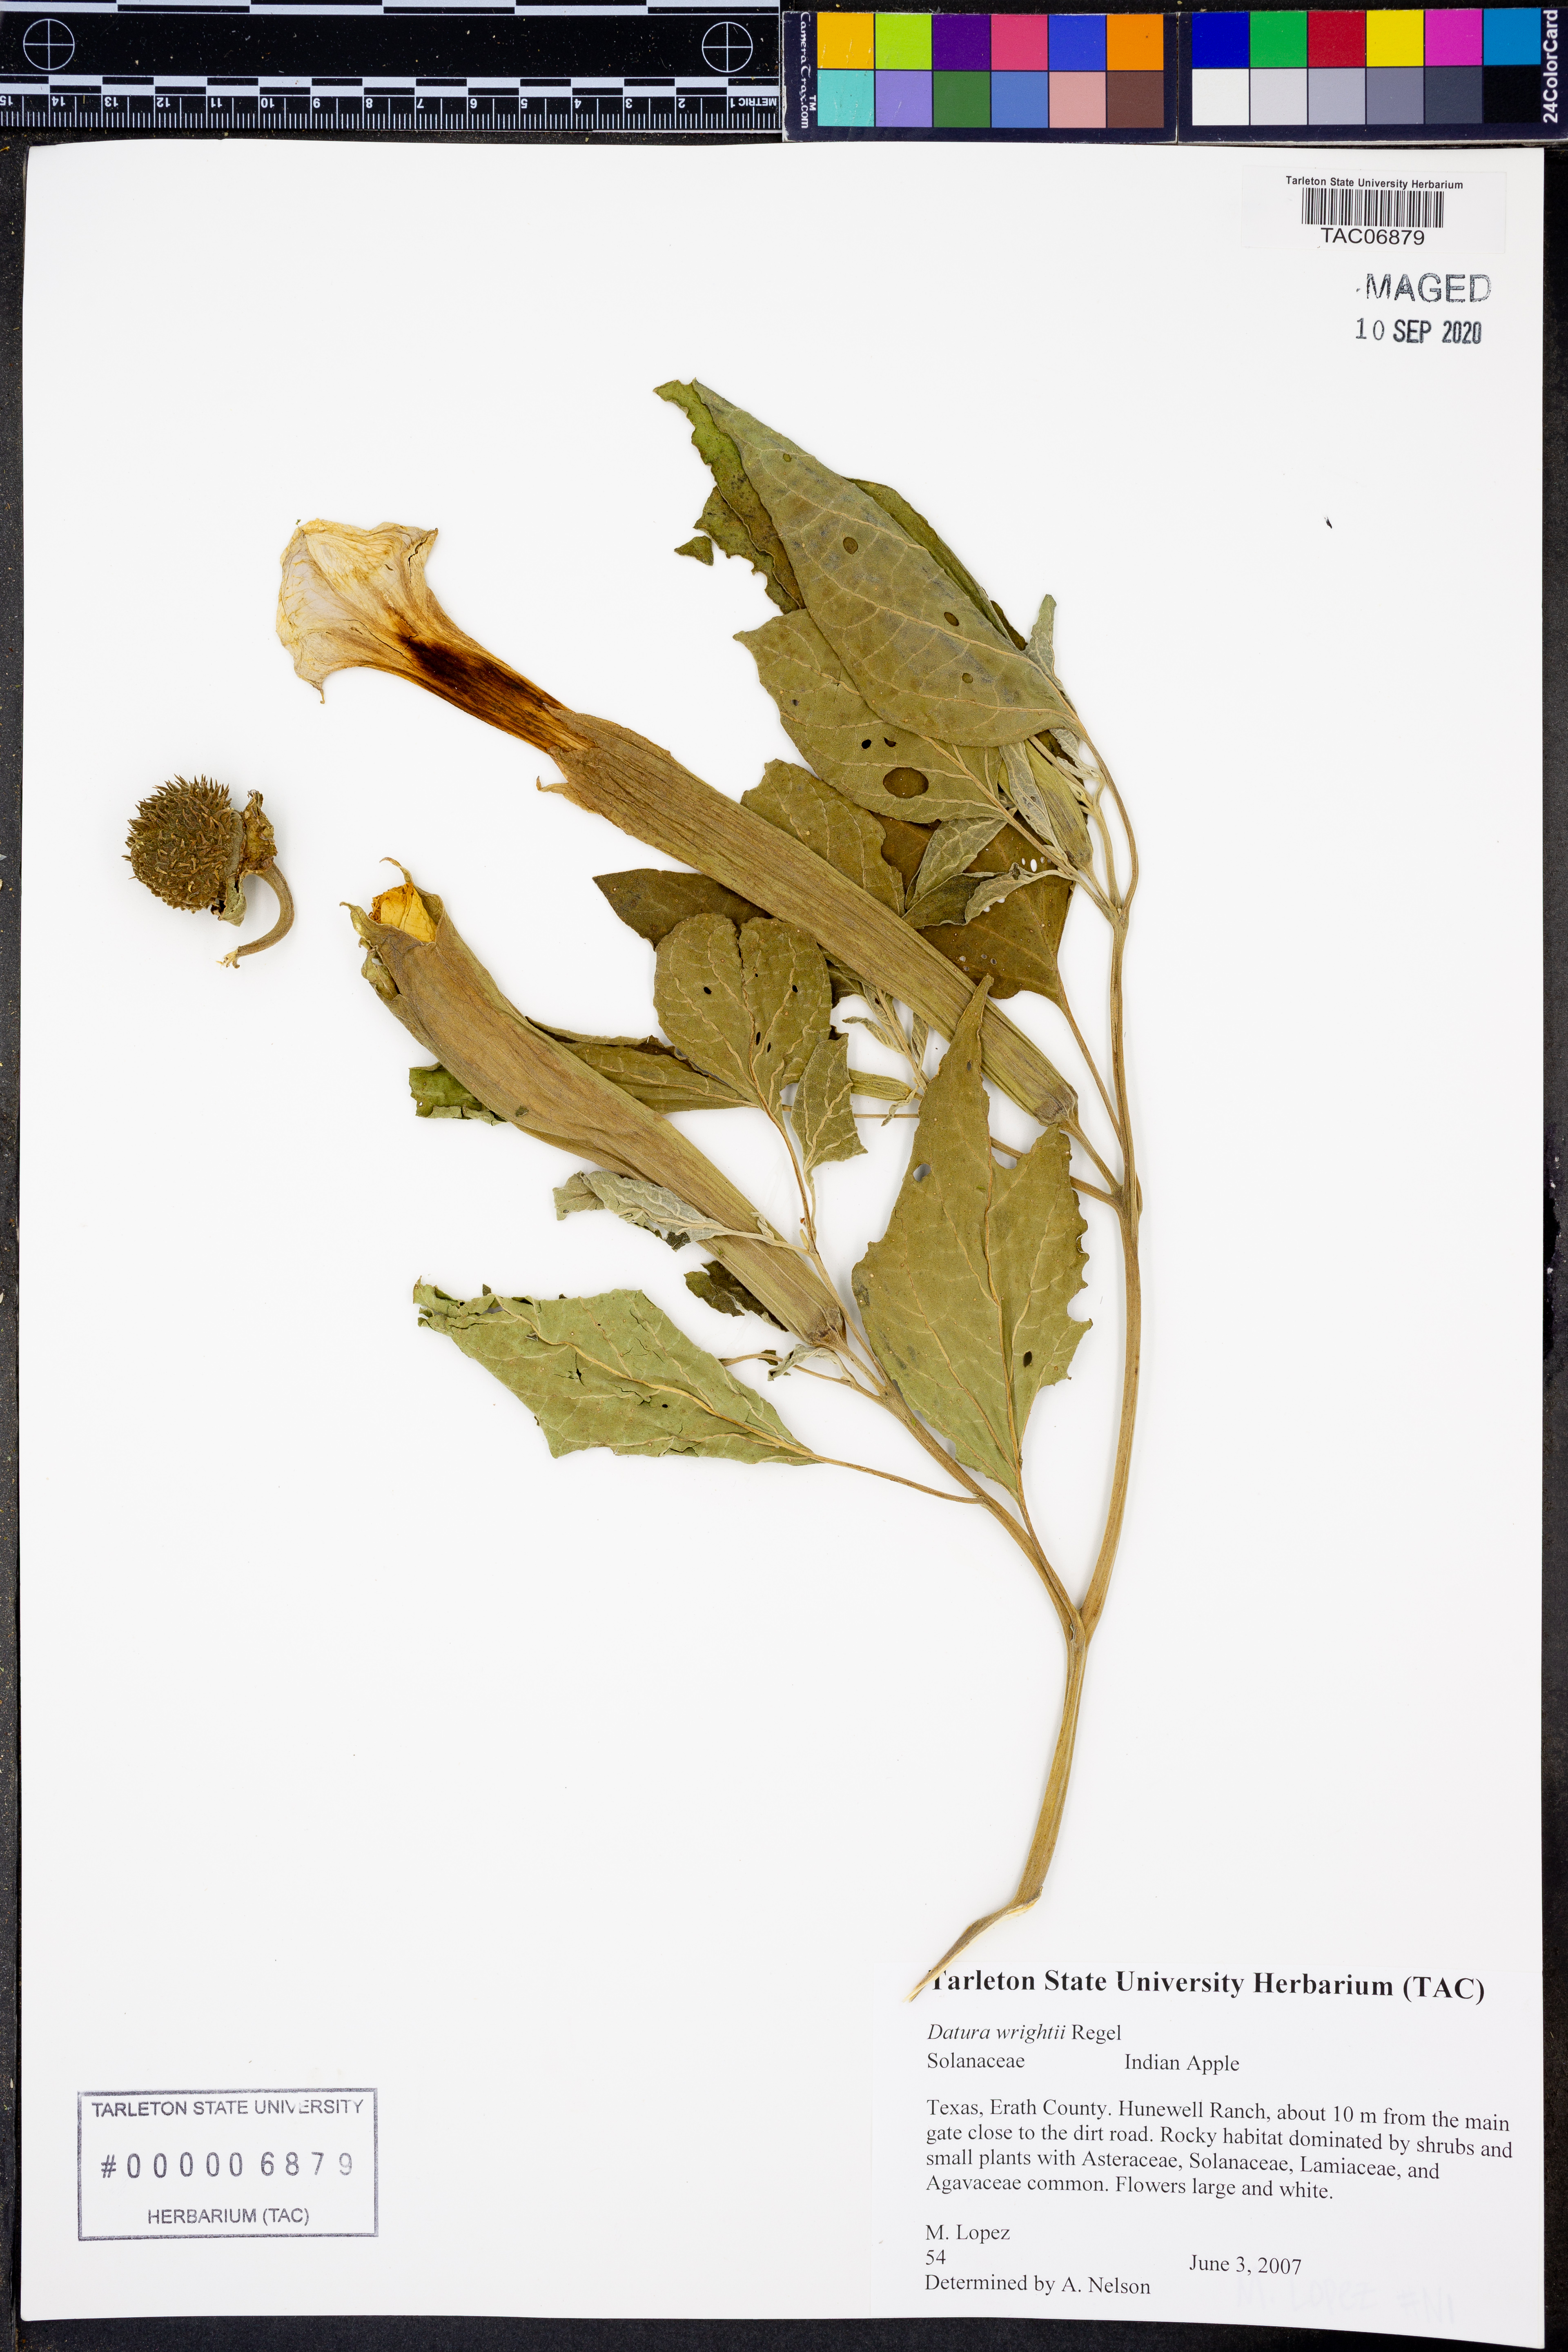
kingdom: Plantae
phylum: Tracheophyta
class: Magnoliopsida
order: Solanales
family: Solanaceae
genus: Datura
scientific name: Datura wrightii
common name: Sacred thorn-apple
